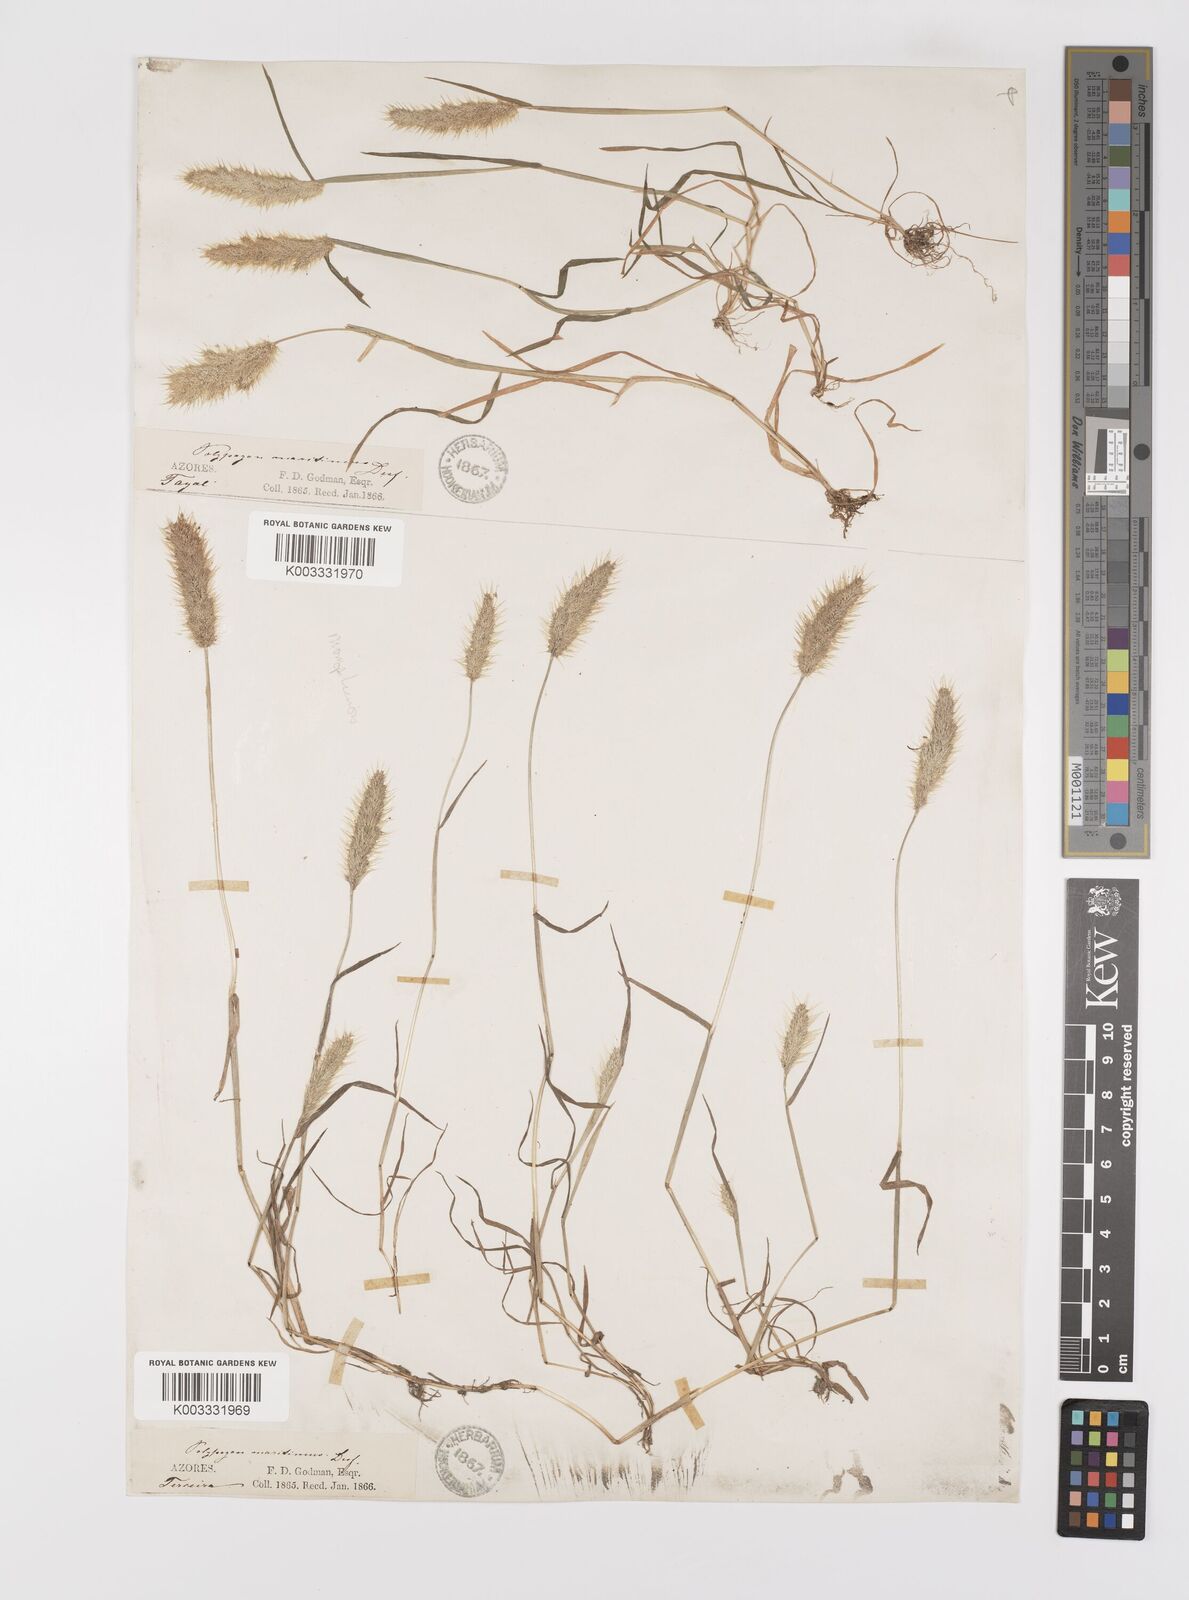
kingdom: Plantae
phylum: Tracheophyta
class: Liliopsida
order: Poales
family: Poaceae
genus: Polypogon
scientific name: Polypogon maritimus
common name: Mediterranean rabbitsfoot grass
